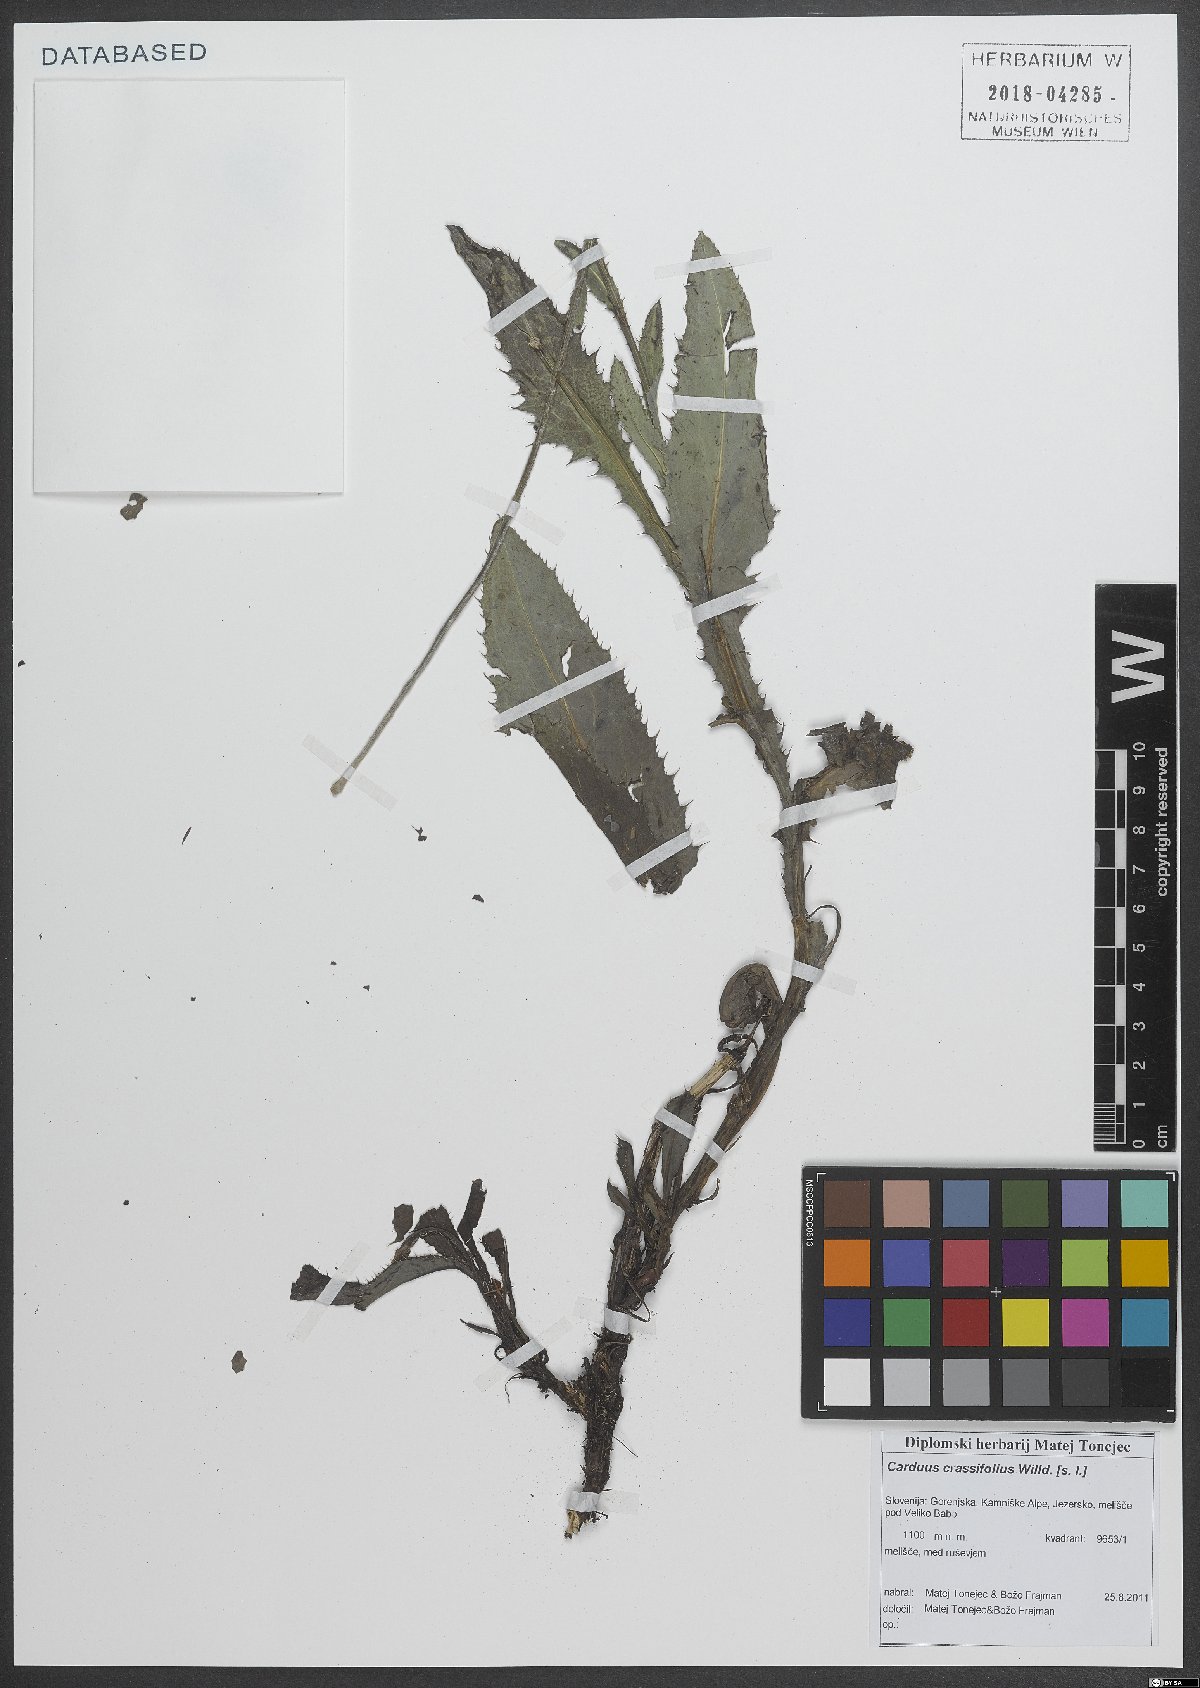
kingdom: Plantae
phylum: Tracheophyta
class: Magnoliopsida
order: Asterales
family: Asteraceae
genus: Carduus
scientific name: Carduus defloratus
